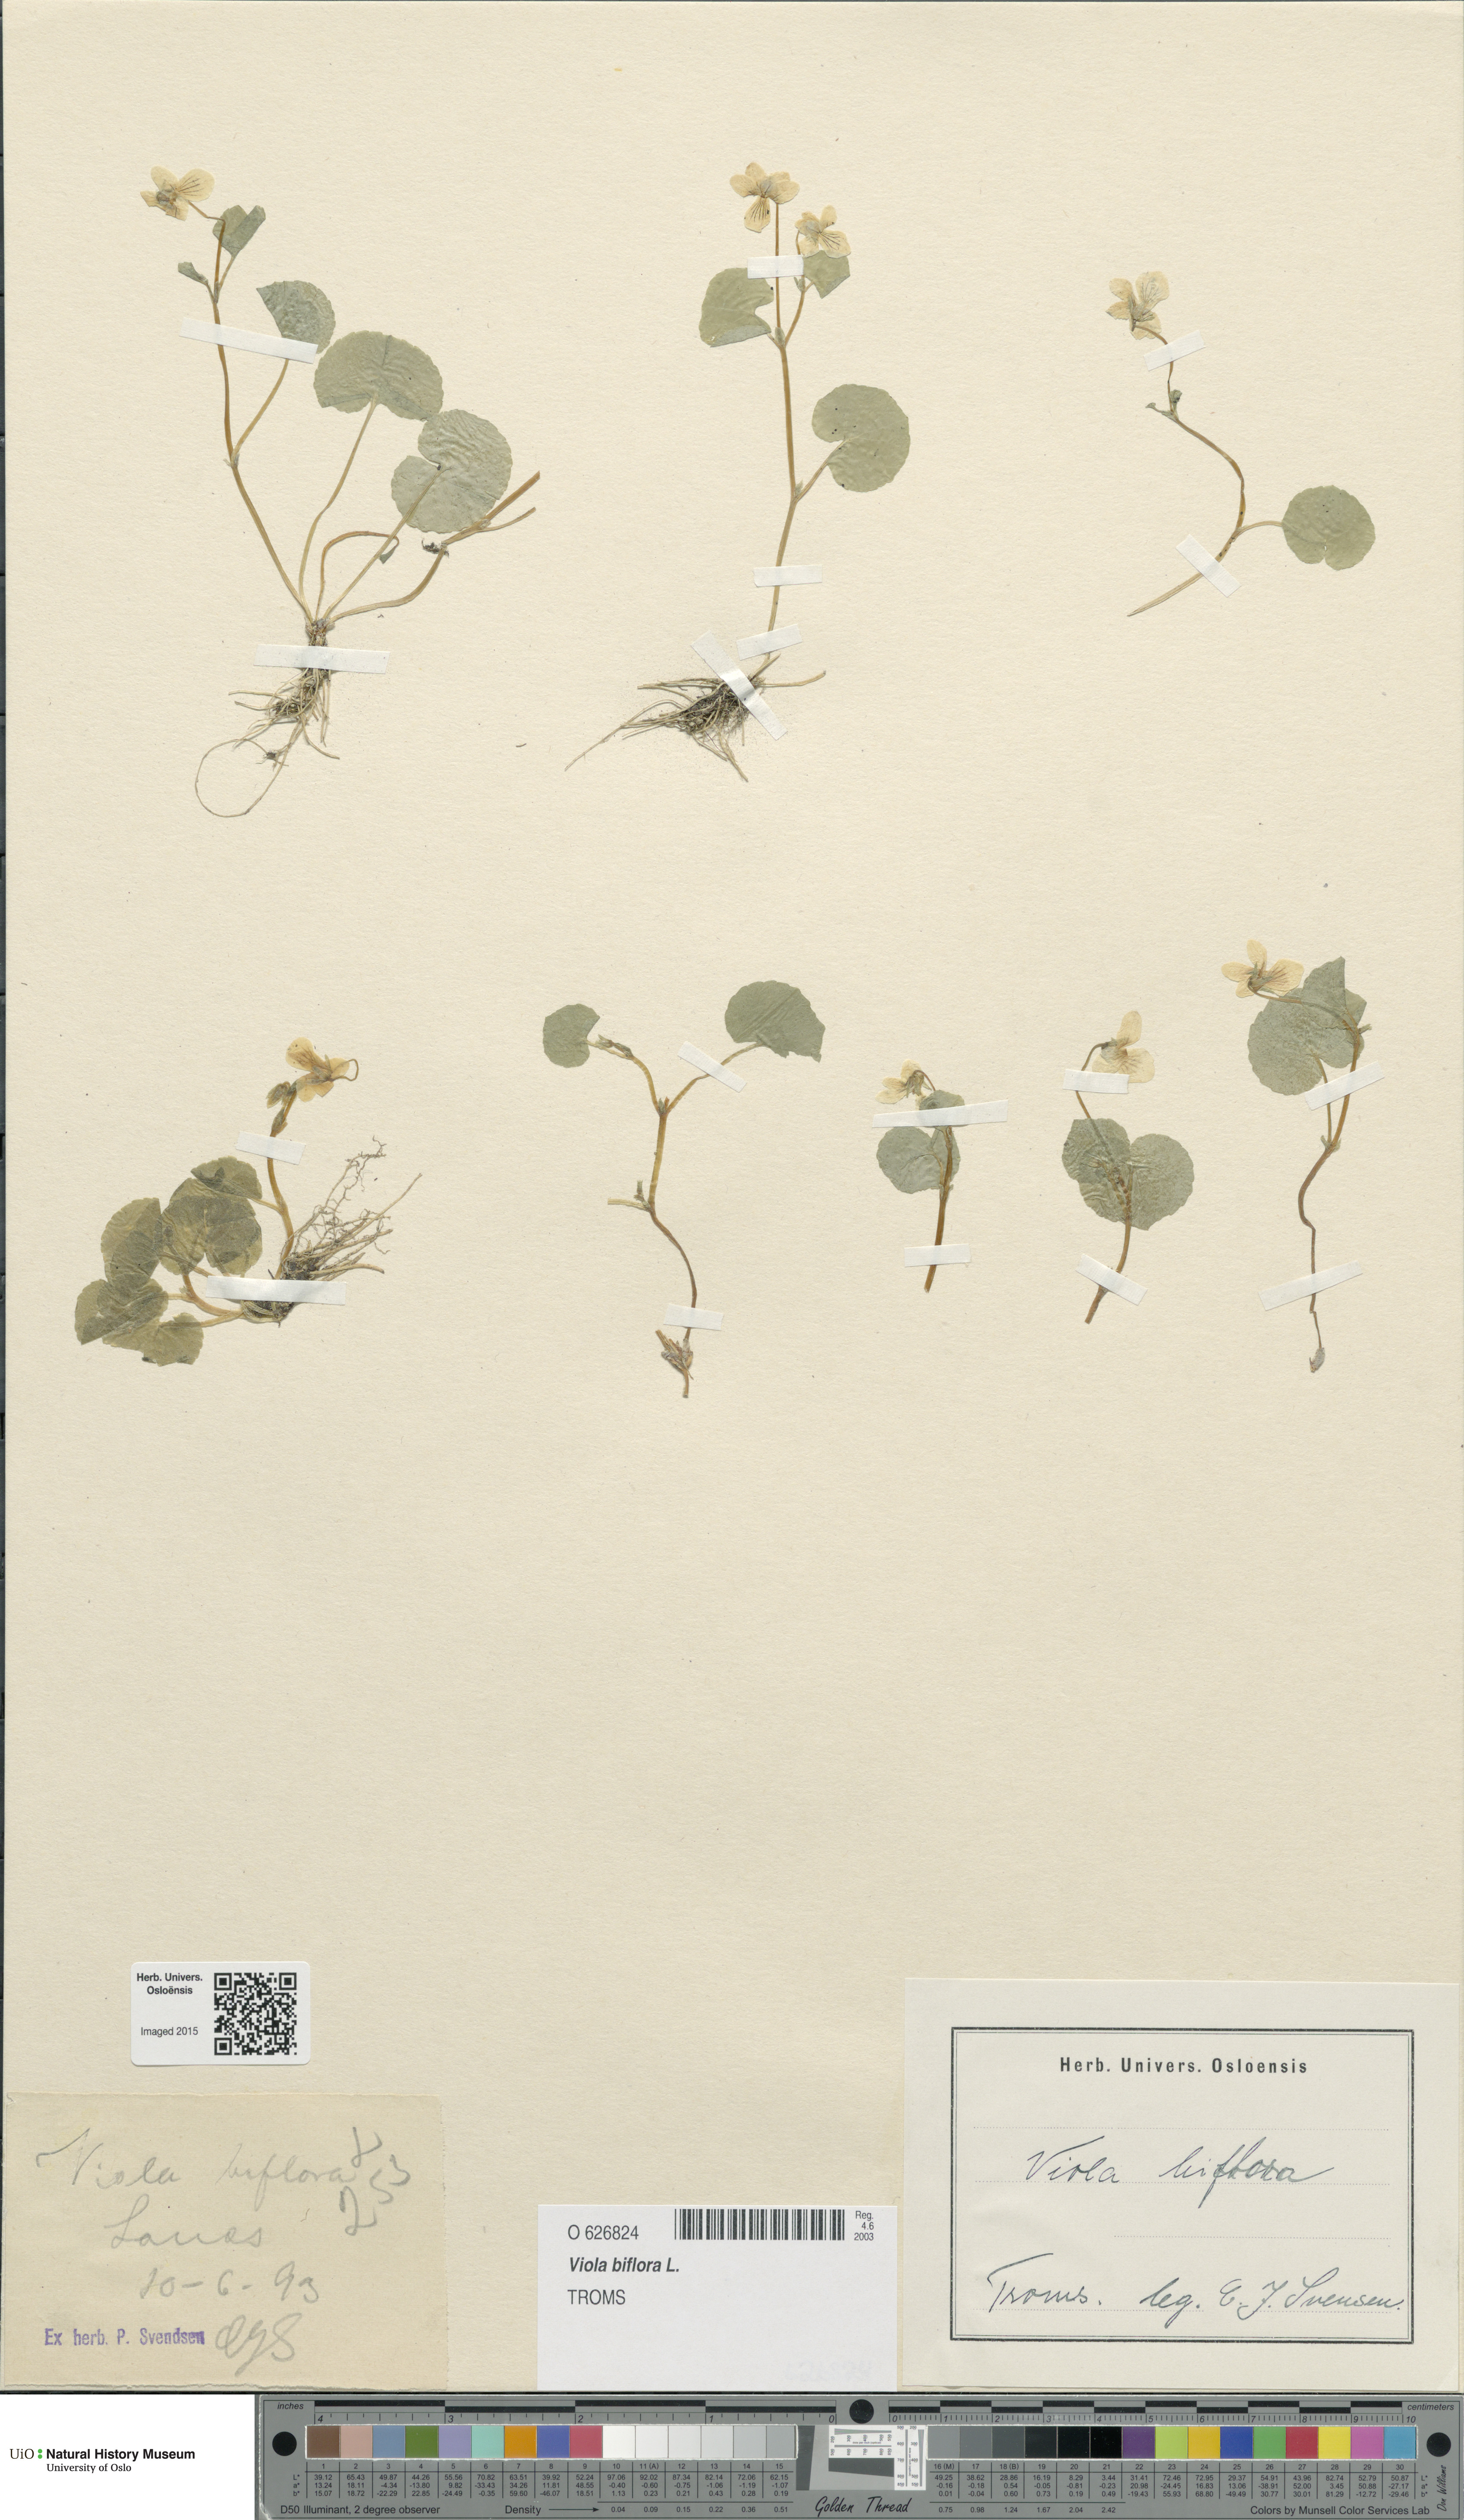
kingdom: Plantae
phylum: Tracheophyta
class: Magnoliopsida
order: Malpighiales
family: Violaceae
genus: Viola
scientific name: Viola biflora
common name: Alpine yellow violet
